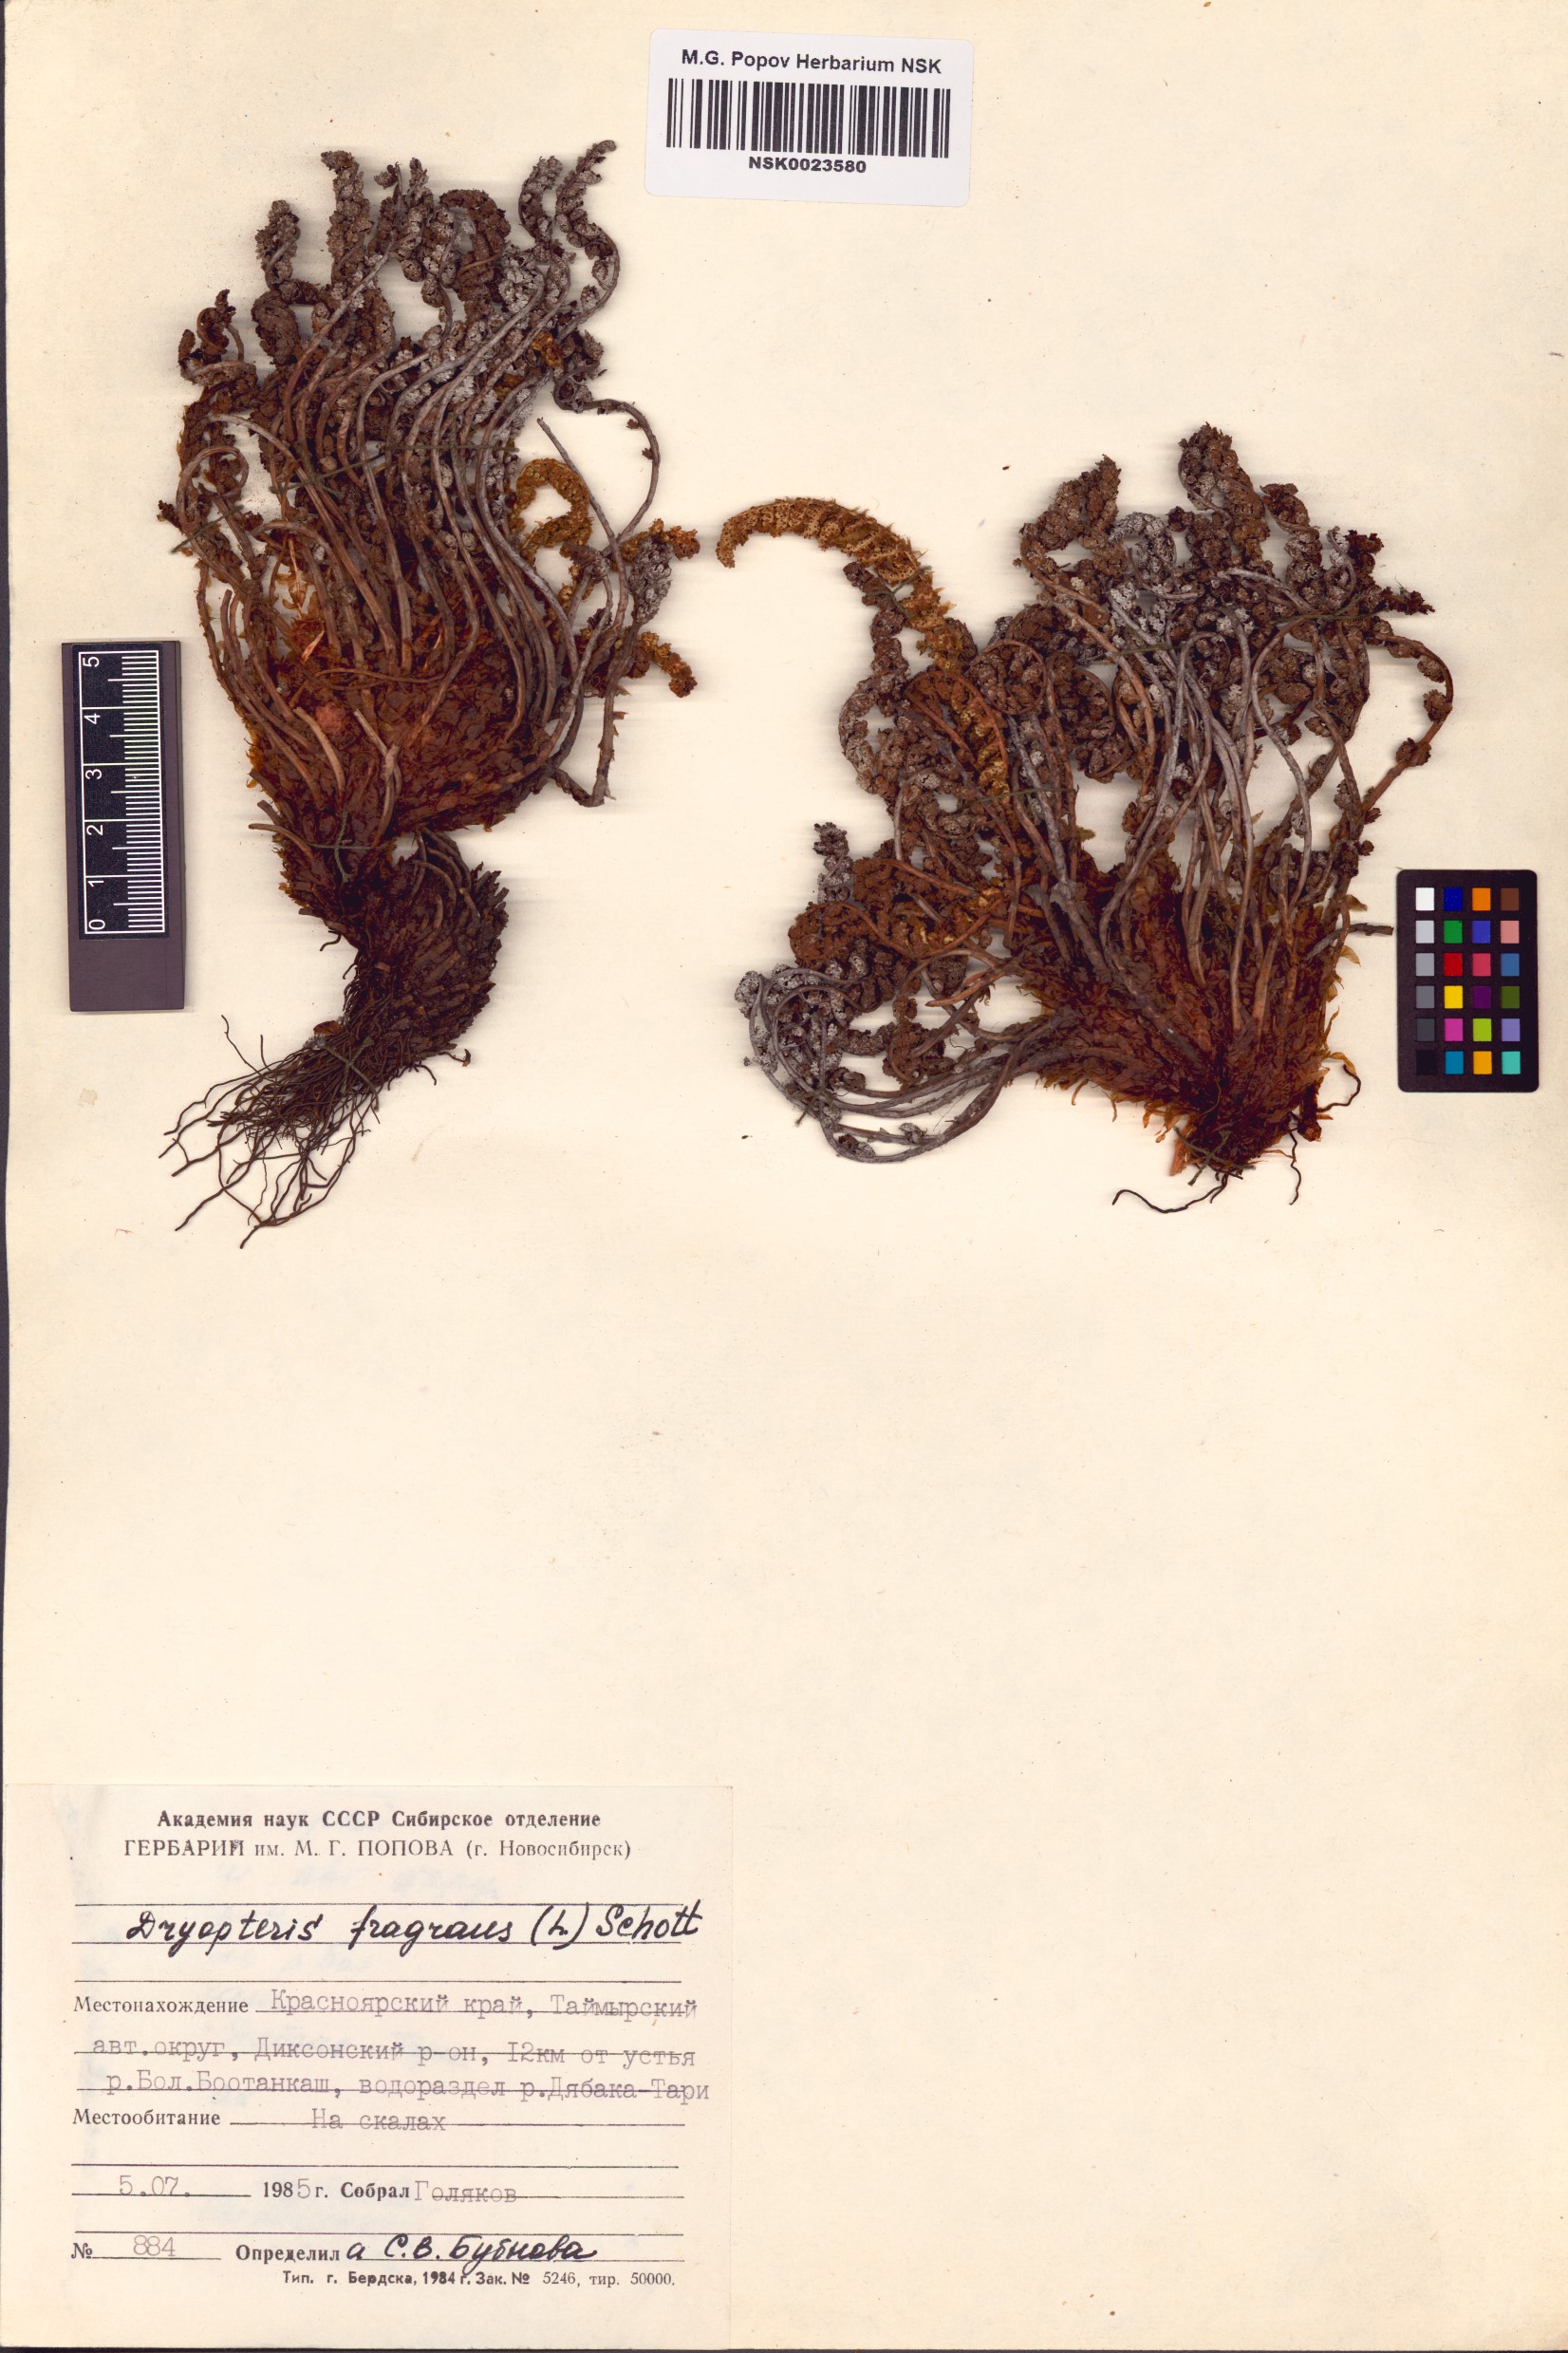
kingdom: Plantae
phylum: Tracheophyta
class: Polypodiopsida
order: Polypodiales
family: Dryopteridaceae
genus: Dryopteris
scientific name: Dryopteris fragrans
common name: Fragrant wood fern
